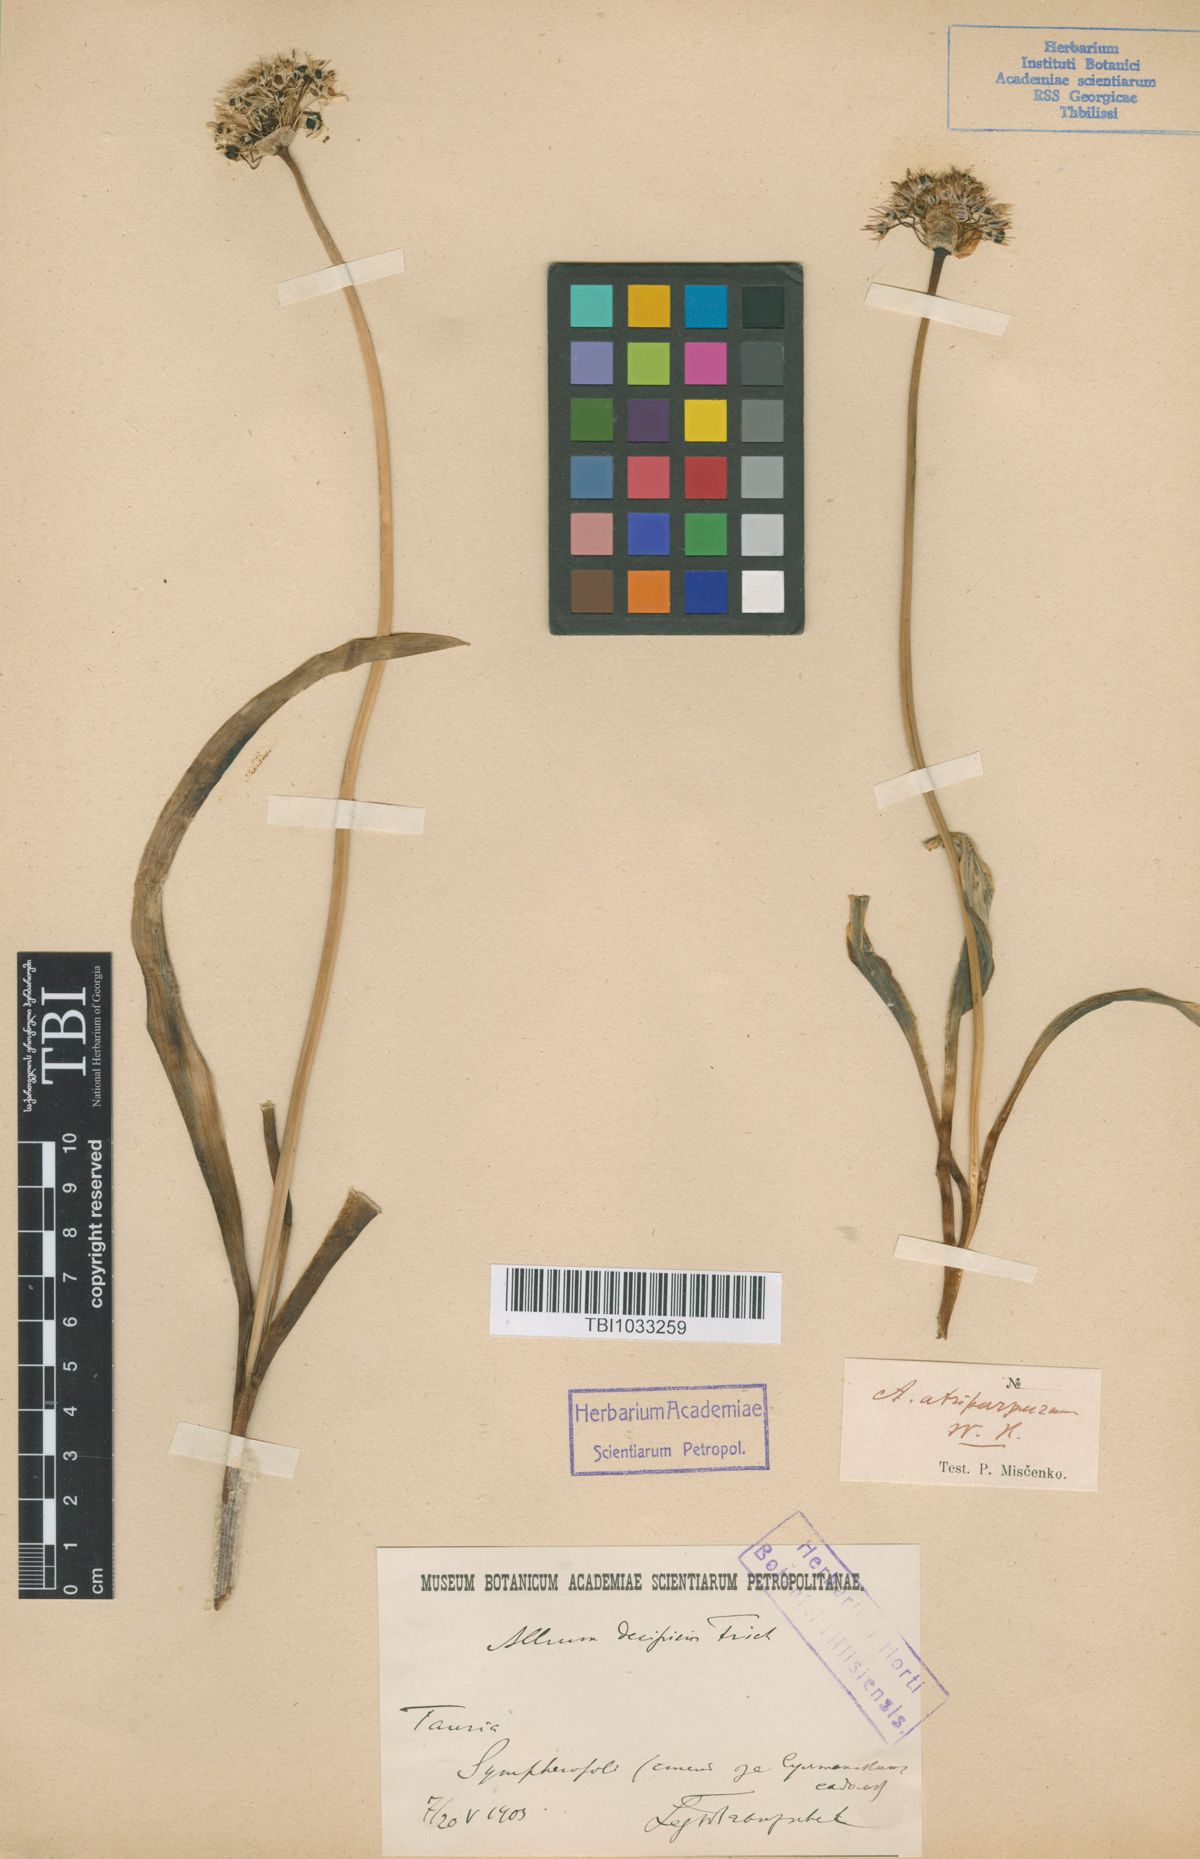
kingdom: Plantae
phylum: Tracheophyta
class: Liliopsida
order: Asparagales
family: Amaryllidaceae
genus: Allium
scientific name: Allium decipiens
